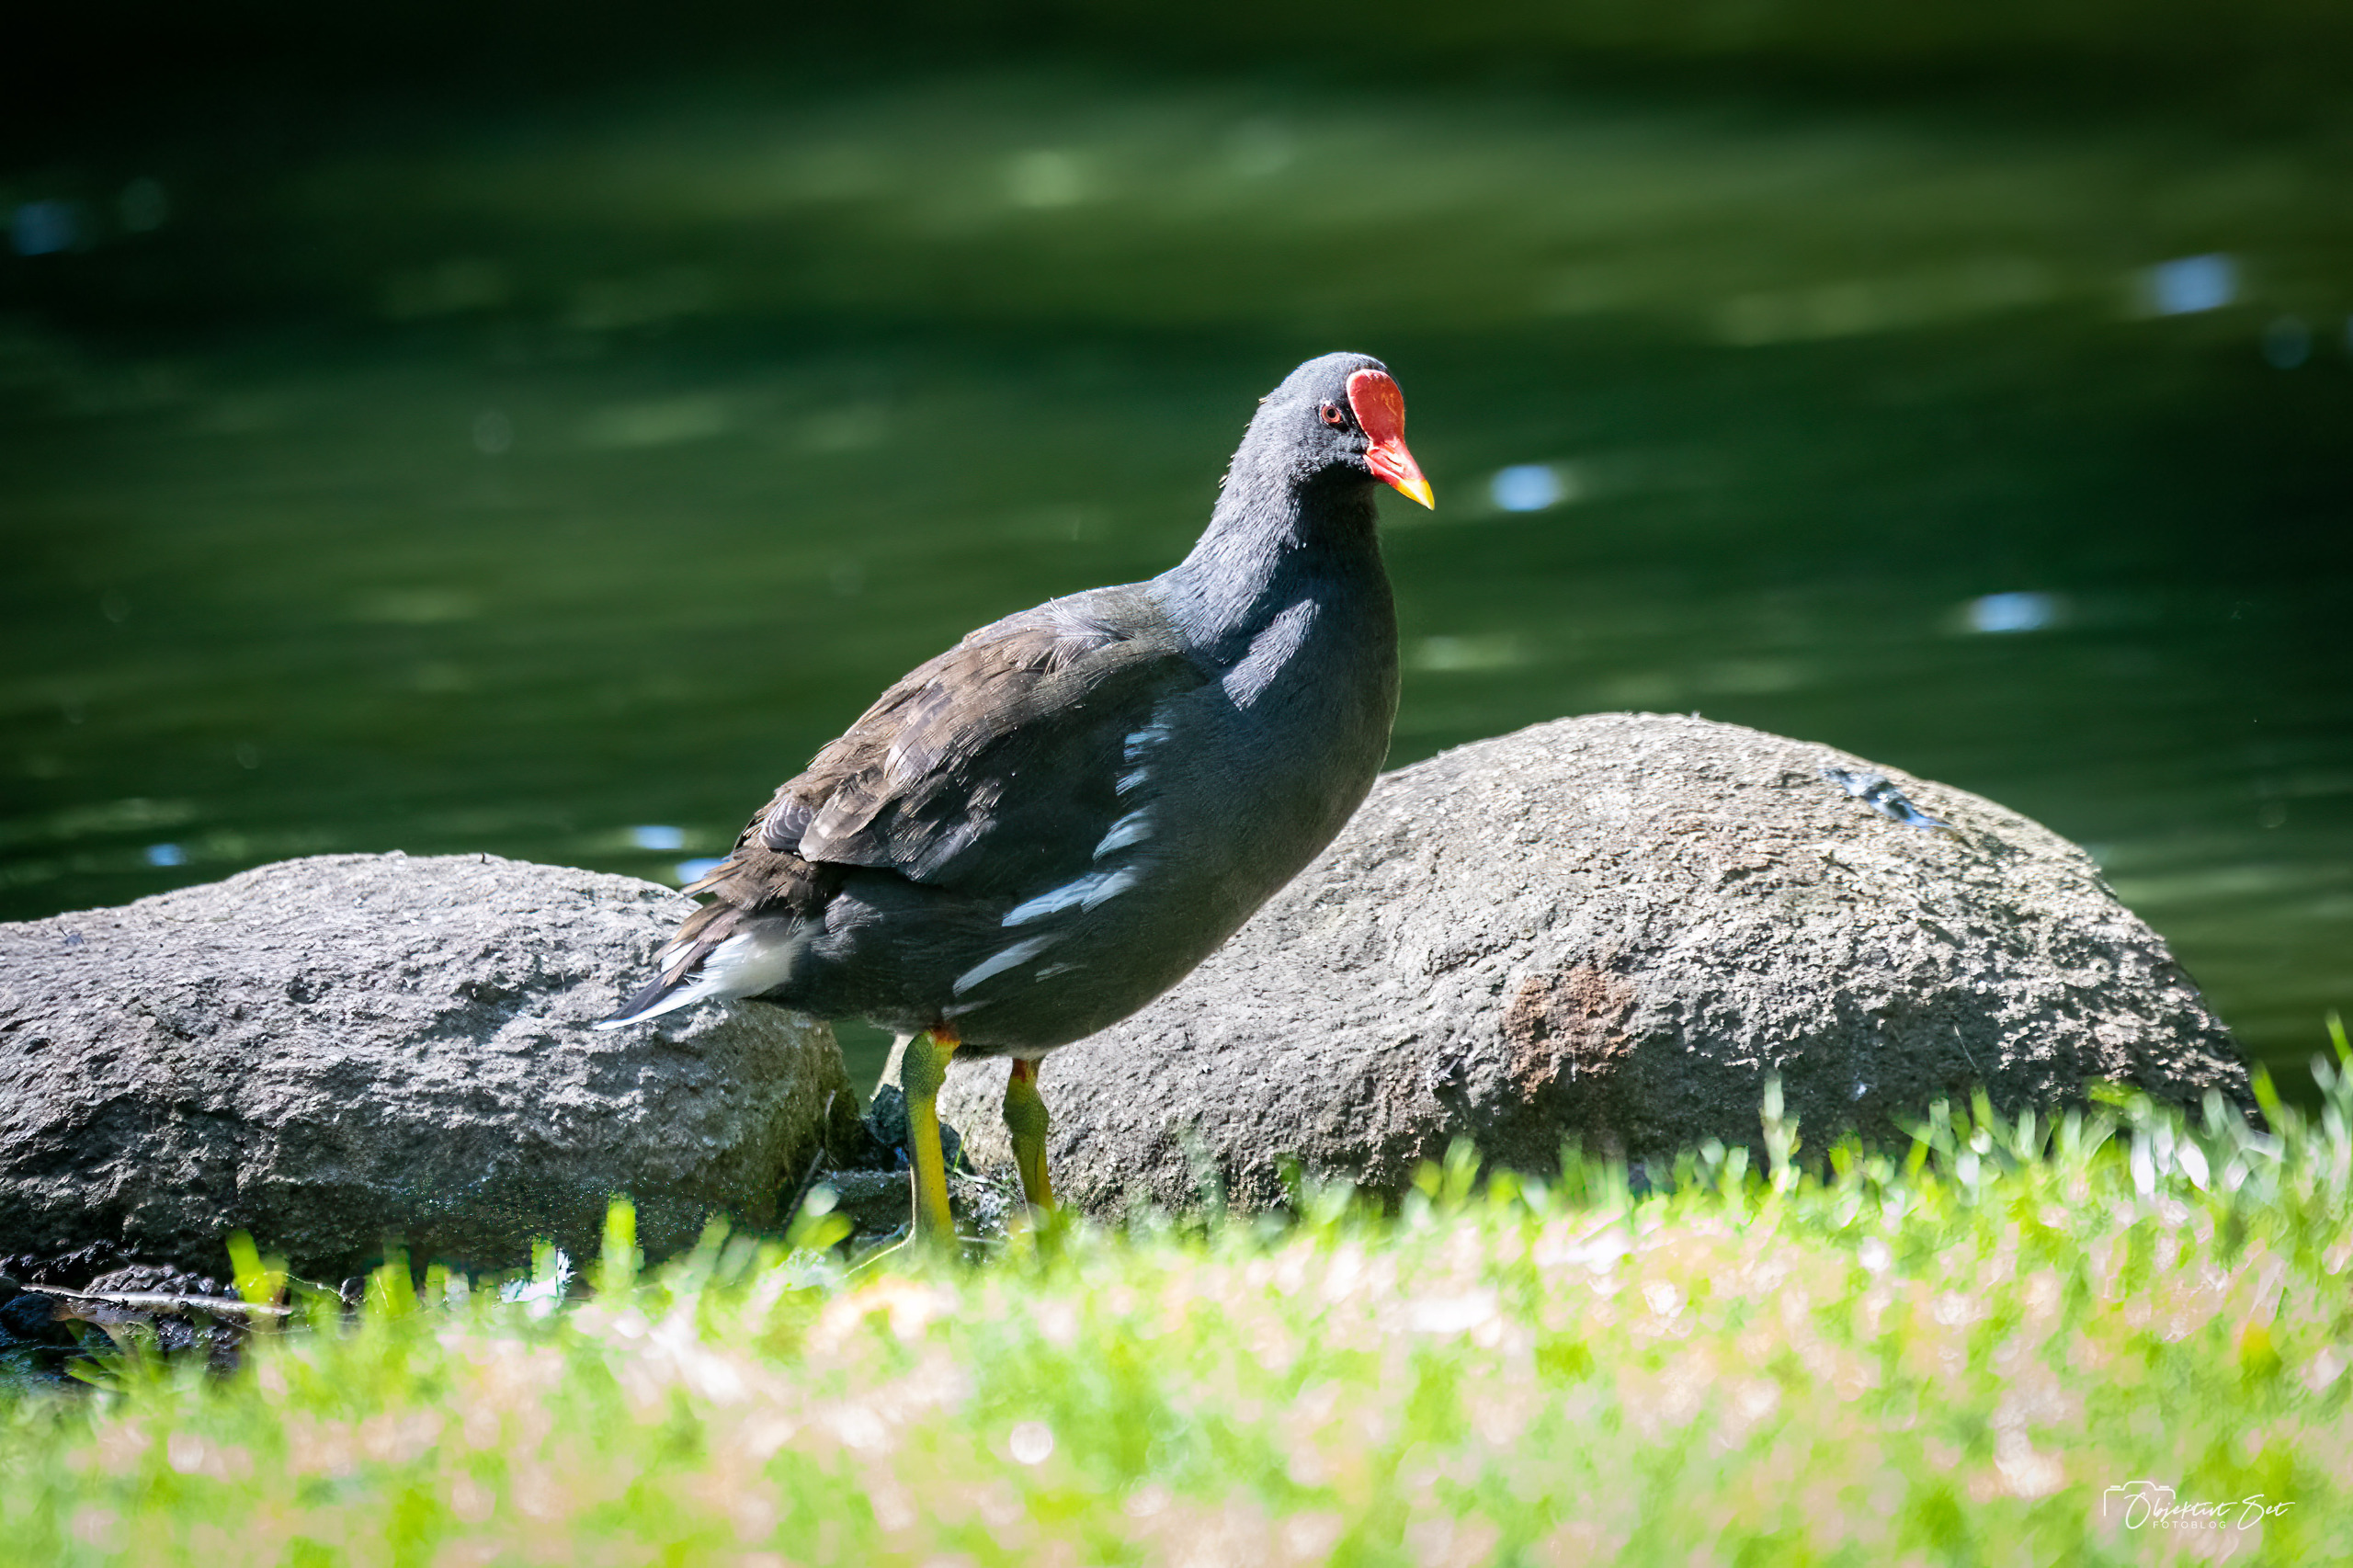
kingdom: Animalia
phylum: Chordata
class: Aves
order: Gruiformes
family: Rallidae
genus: Gallinula
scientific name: Gallinula chloropus
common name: Grønbenet rørhøne
